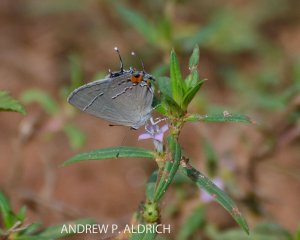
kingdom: Animalia
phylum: Arthropoda
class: Insecta
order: Lepidoptera
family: Lycaenidae
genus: Strymon
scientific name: Strymon melinus
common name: Gray Hairstreak
